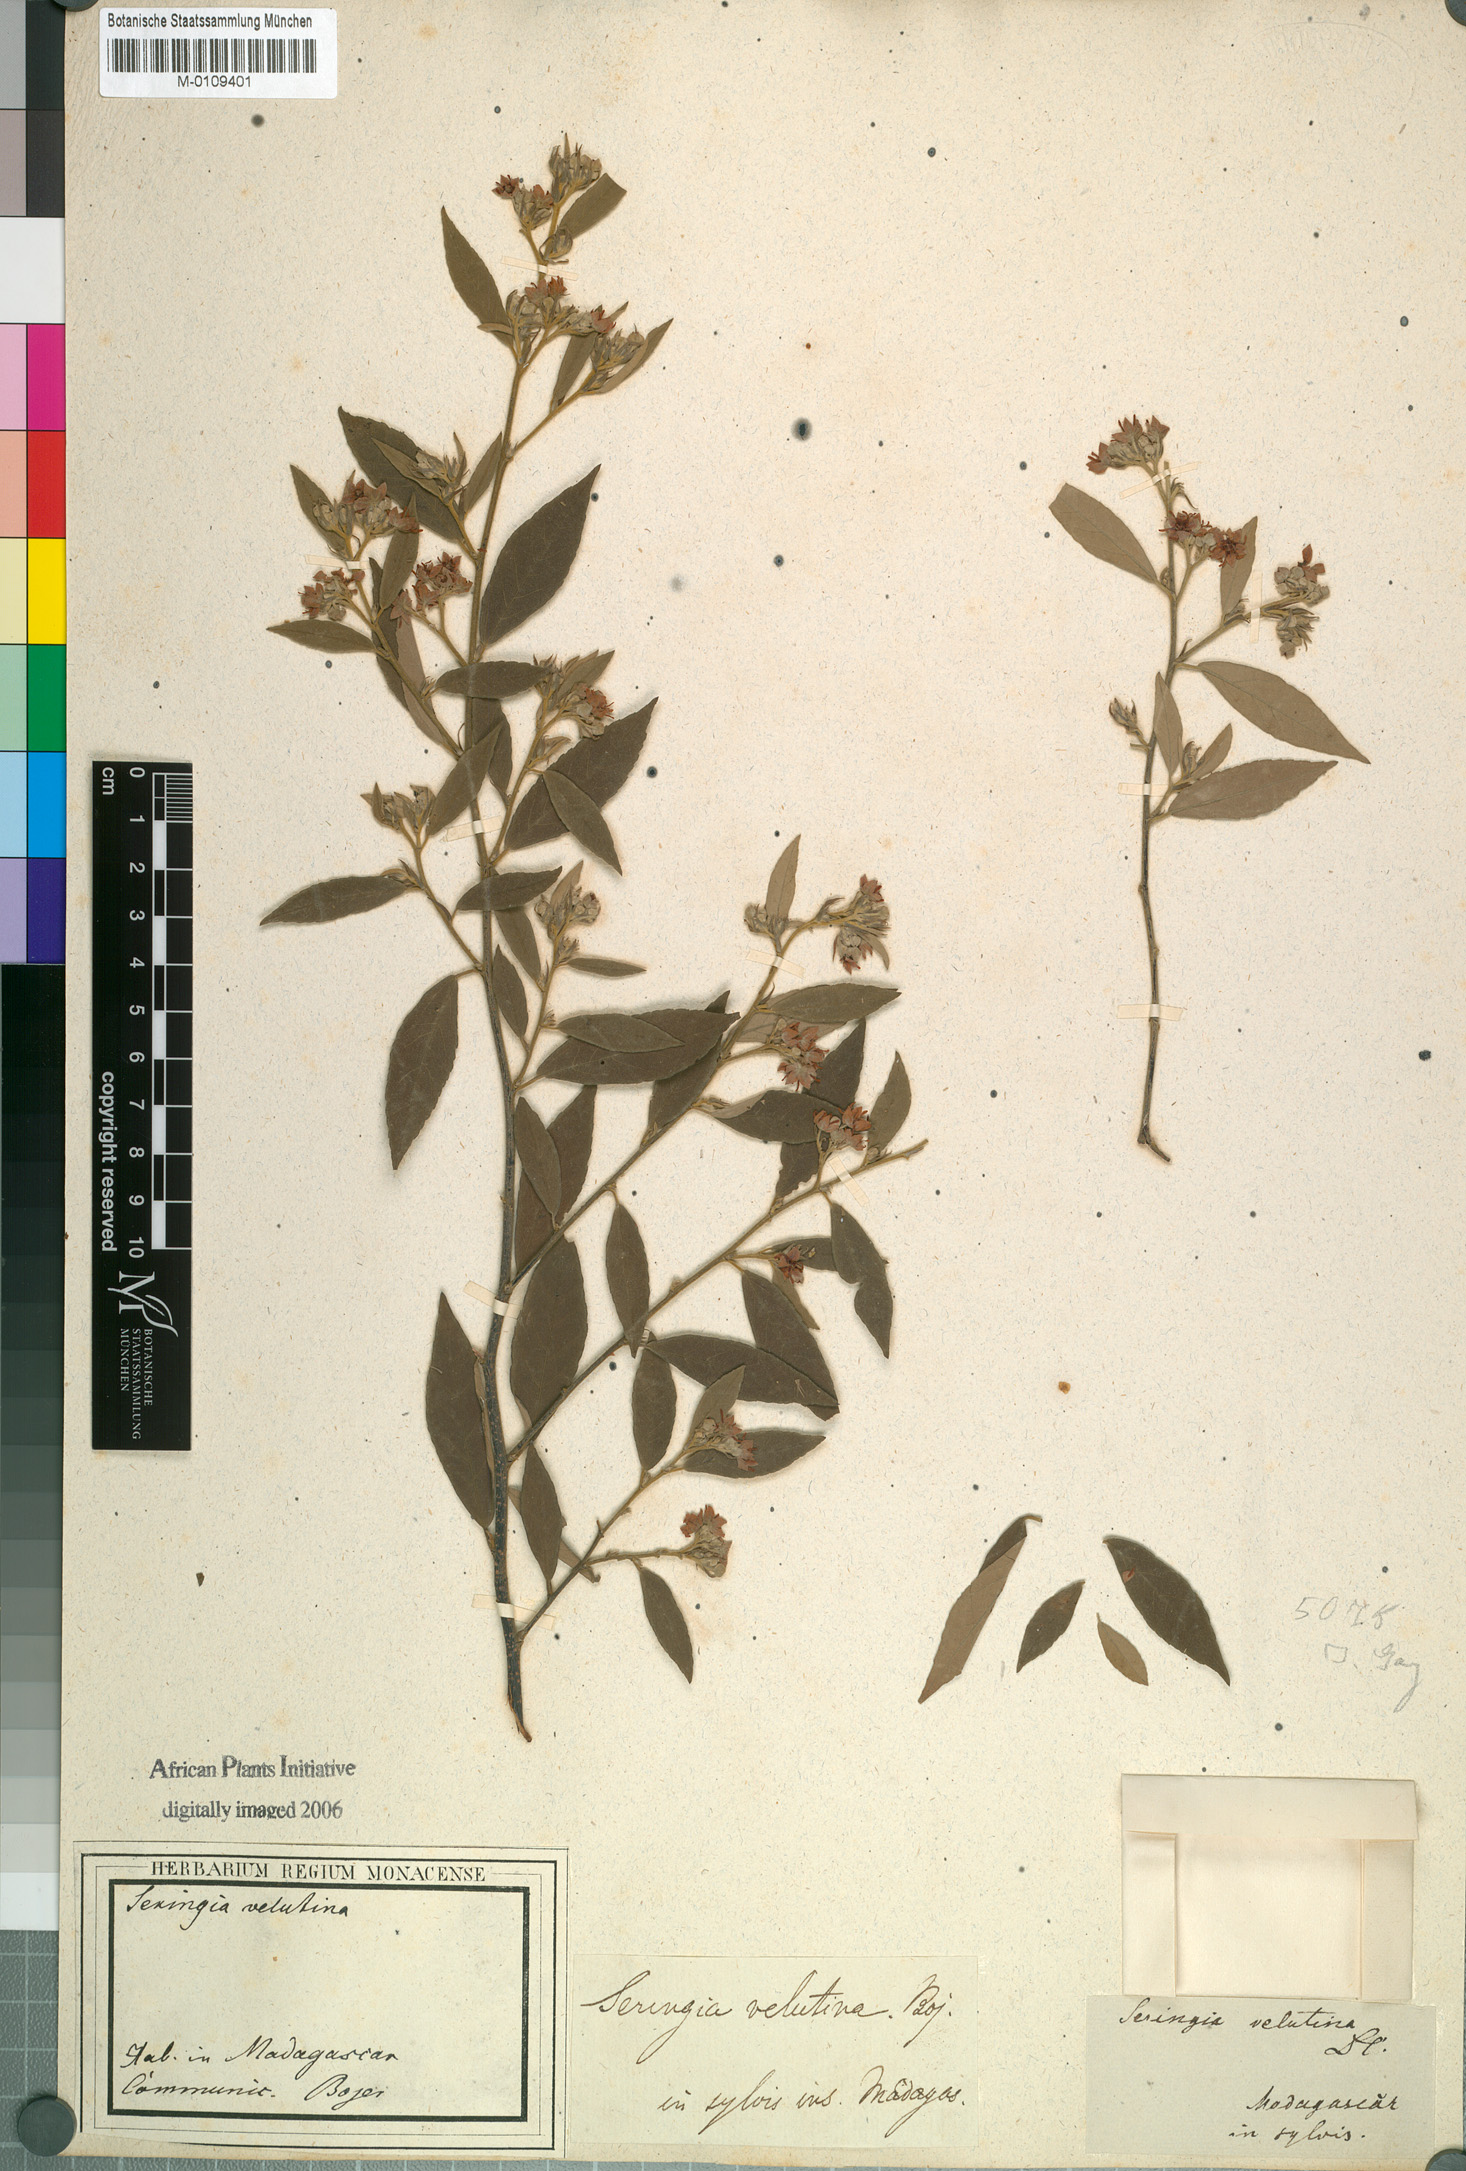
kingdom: Plantae
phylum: Tracheophyta
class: Magnoliopsida
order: Malvales
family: Malvaceae
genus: Seringia
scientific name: Seringia velutina
